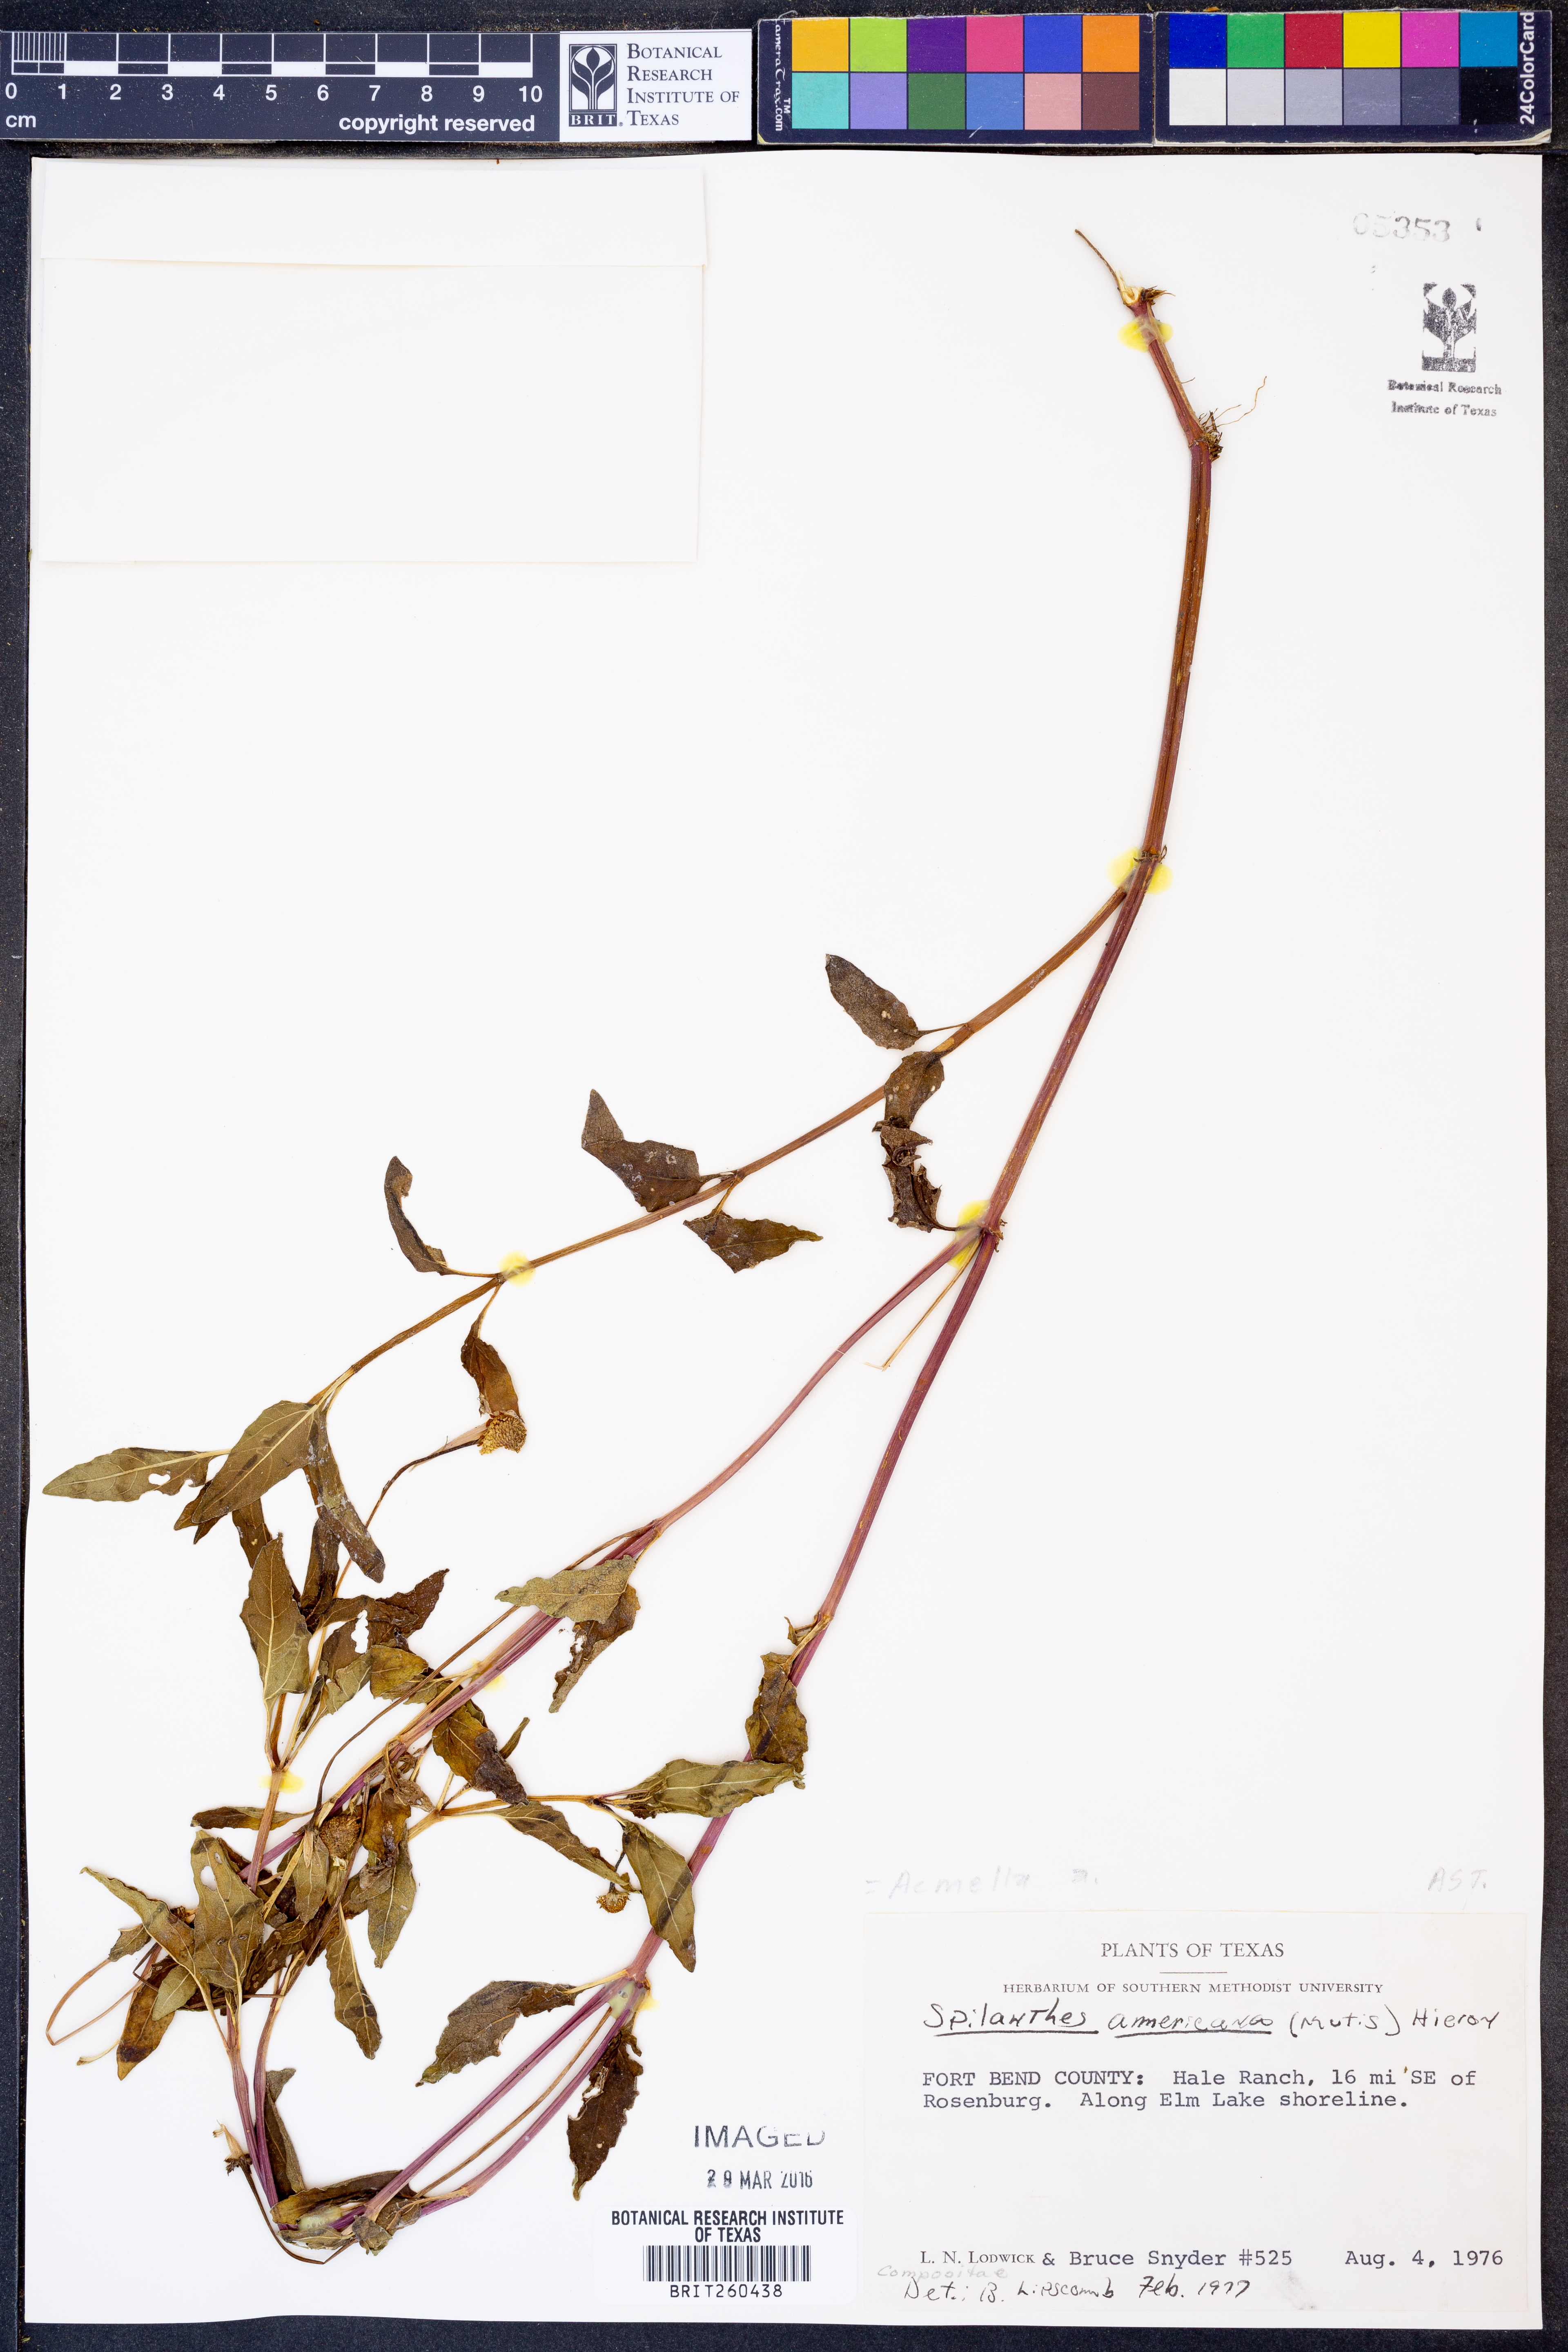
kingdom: Plantae
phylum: Tracheophyta
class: Magnoliopsida
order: Asterales
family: Asteraceae
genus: Acmella
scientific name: Acmella
